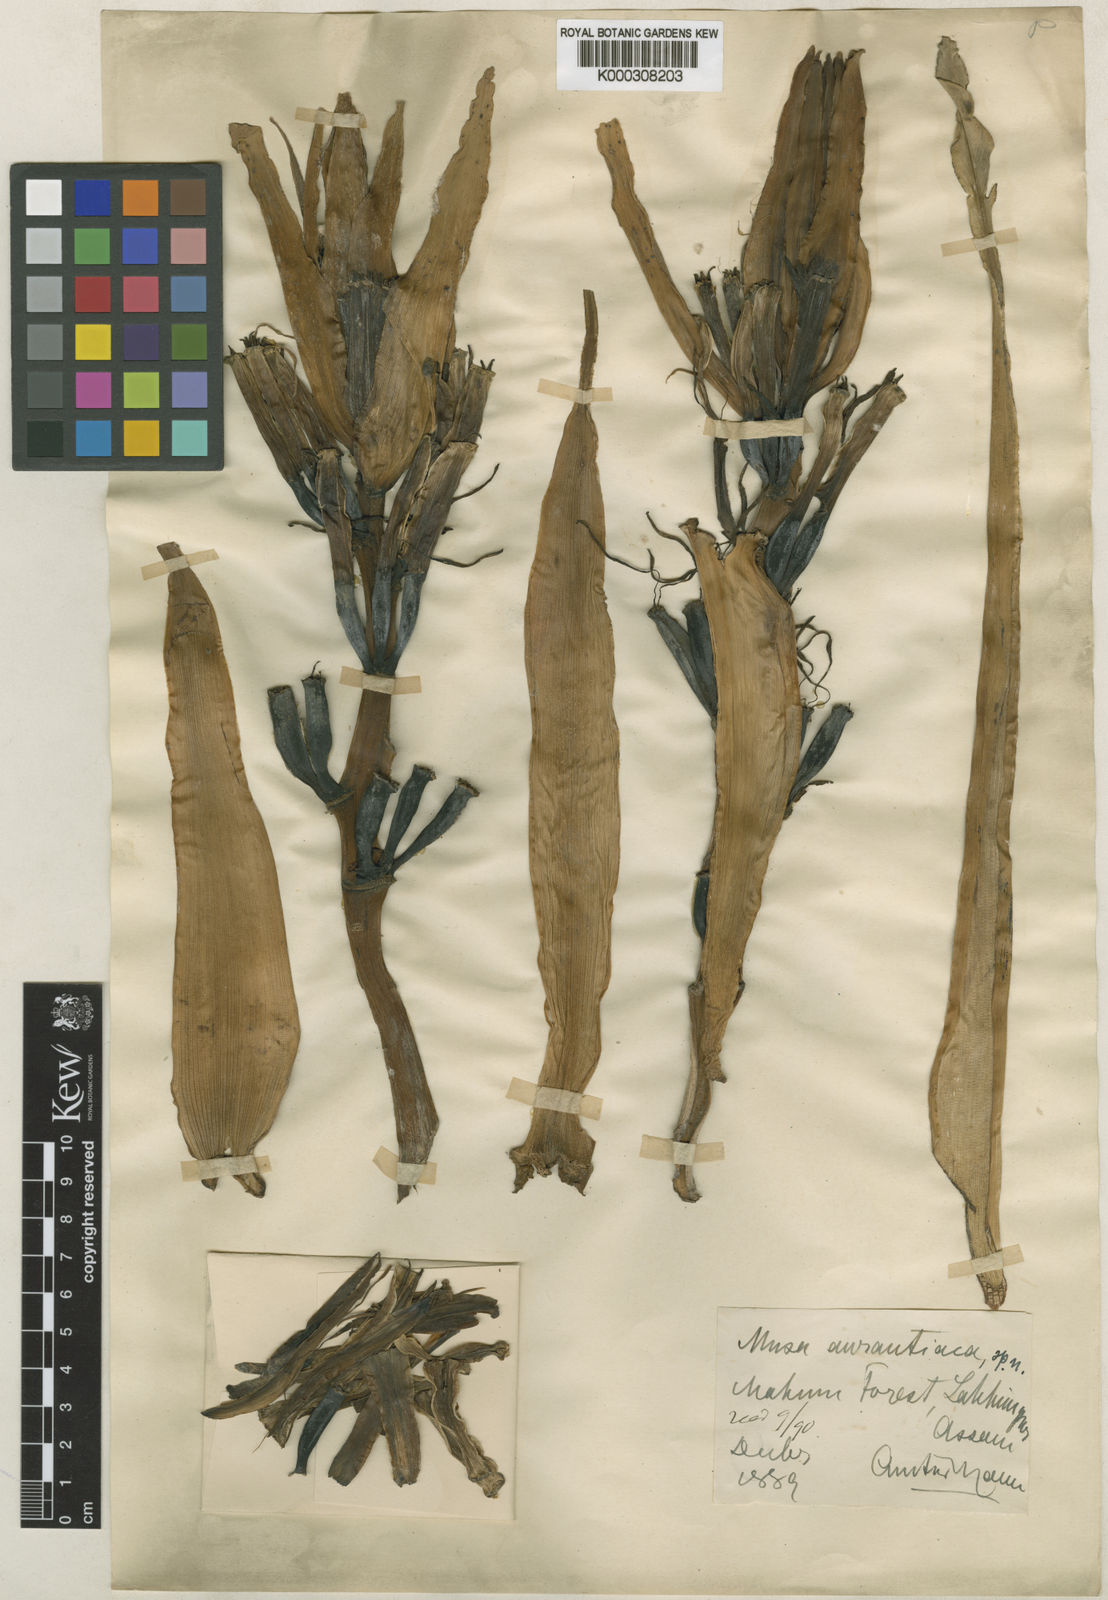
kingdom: Plantae
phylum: Tracheophyta
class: Liliopsida
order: Zingiberales
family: Musaceae
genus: Musa
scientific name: Musa aurantiaca
